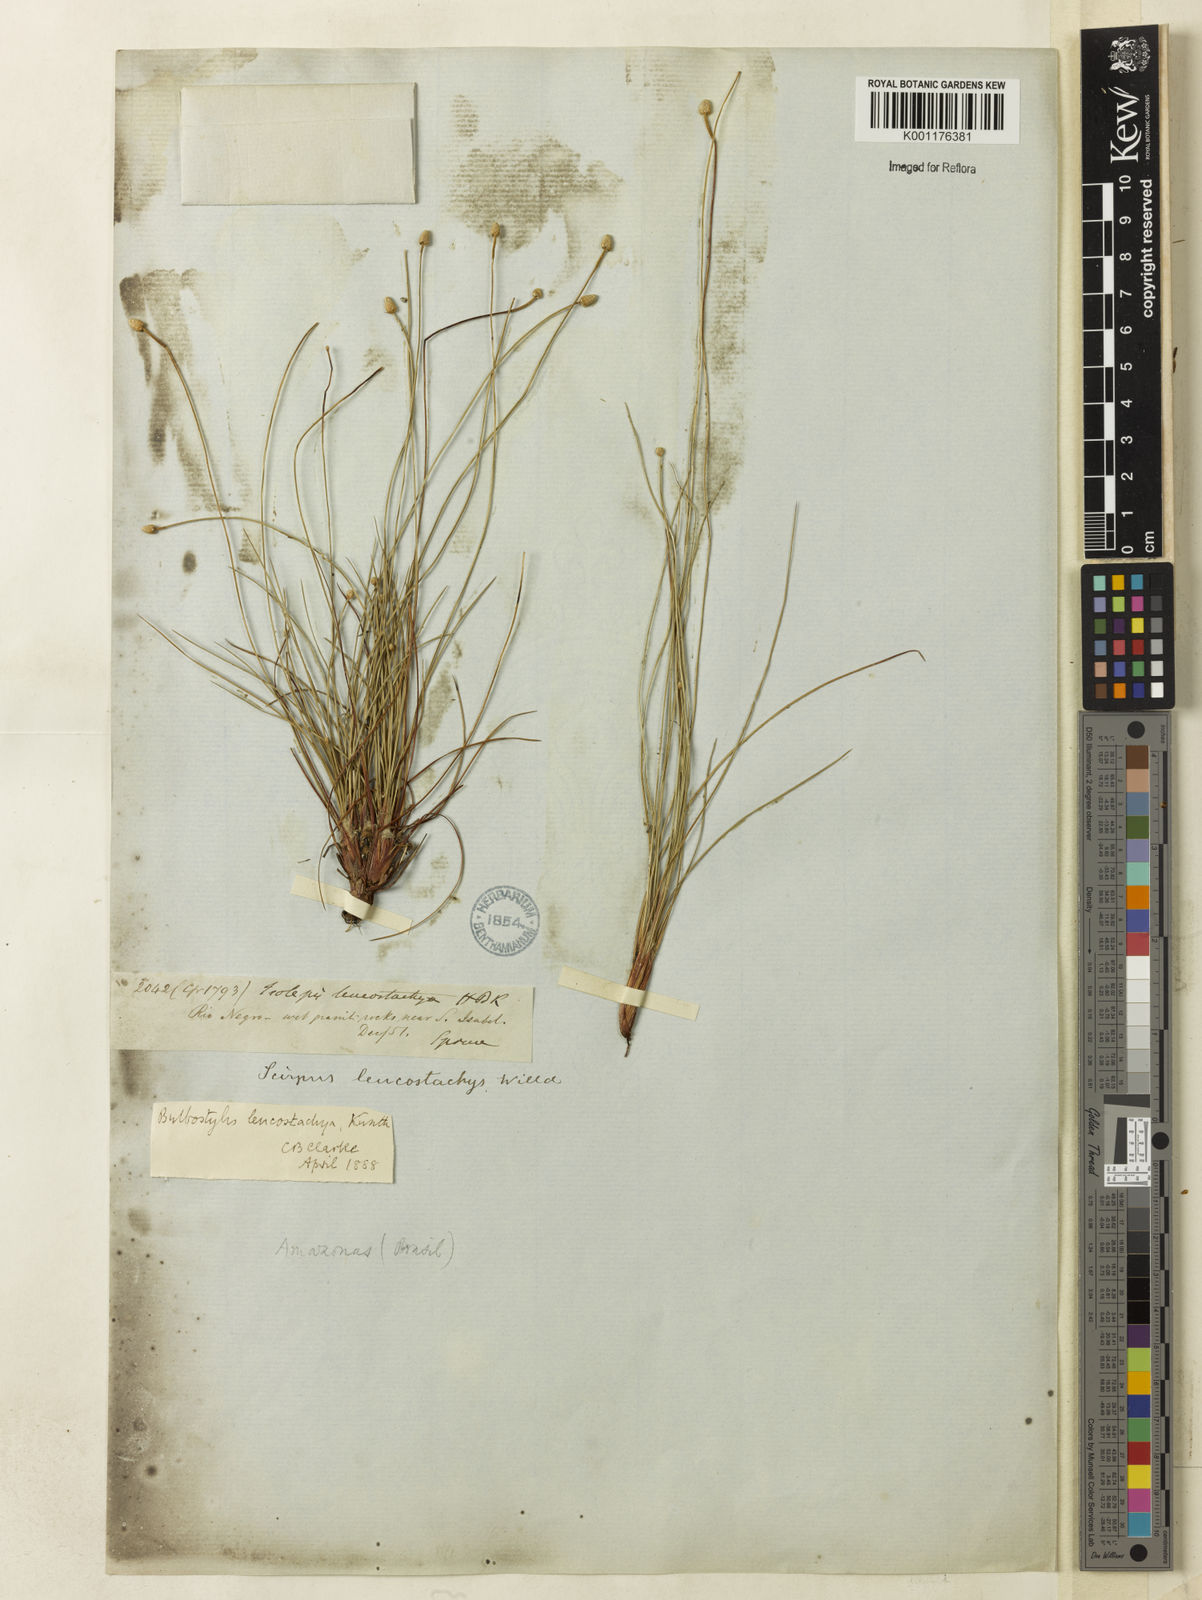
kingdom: Plantae
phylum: Tracheophyta
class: Liliopsida
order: Poales
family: Cyperaceae
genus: Bulbostylis
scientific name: Bulbostylis leucostachya
